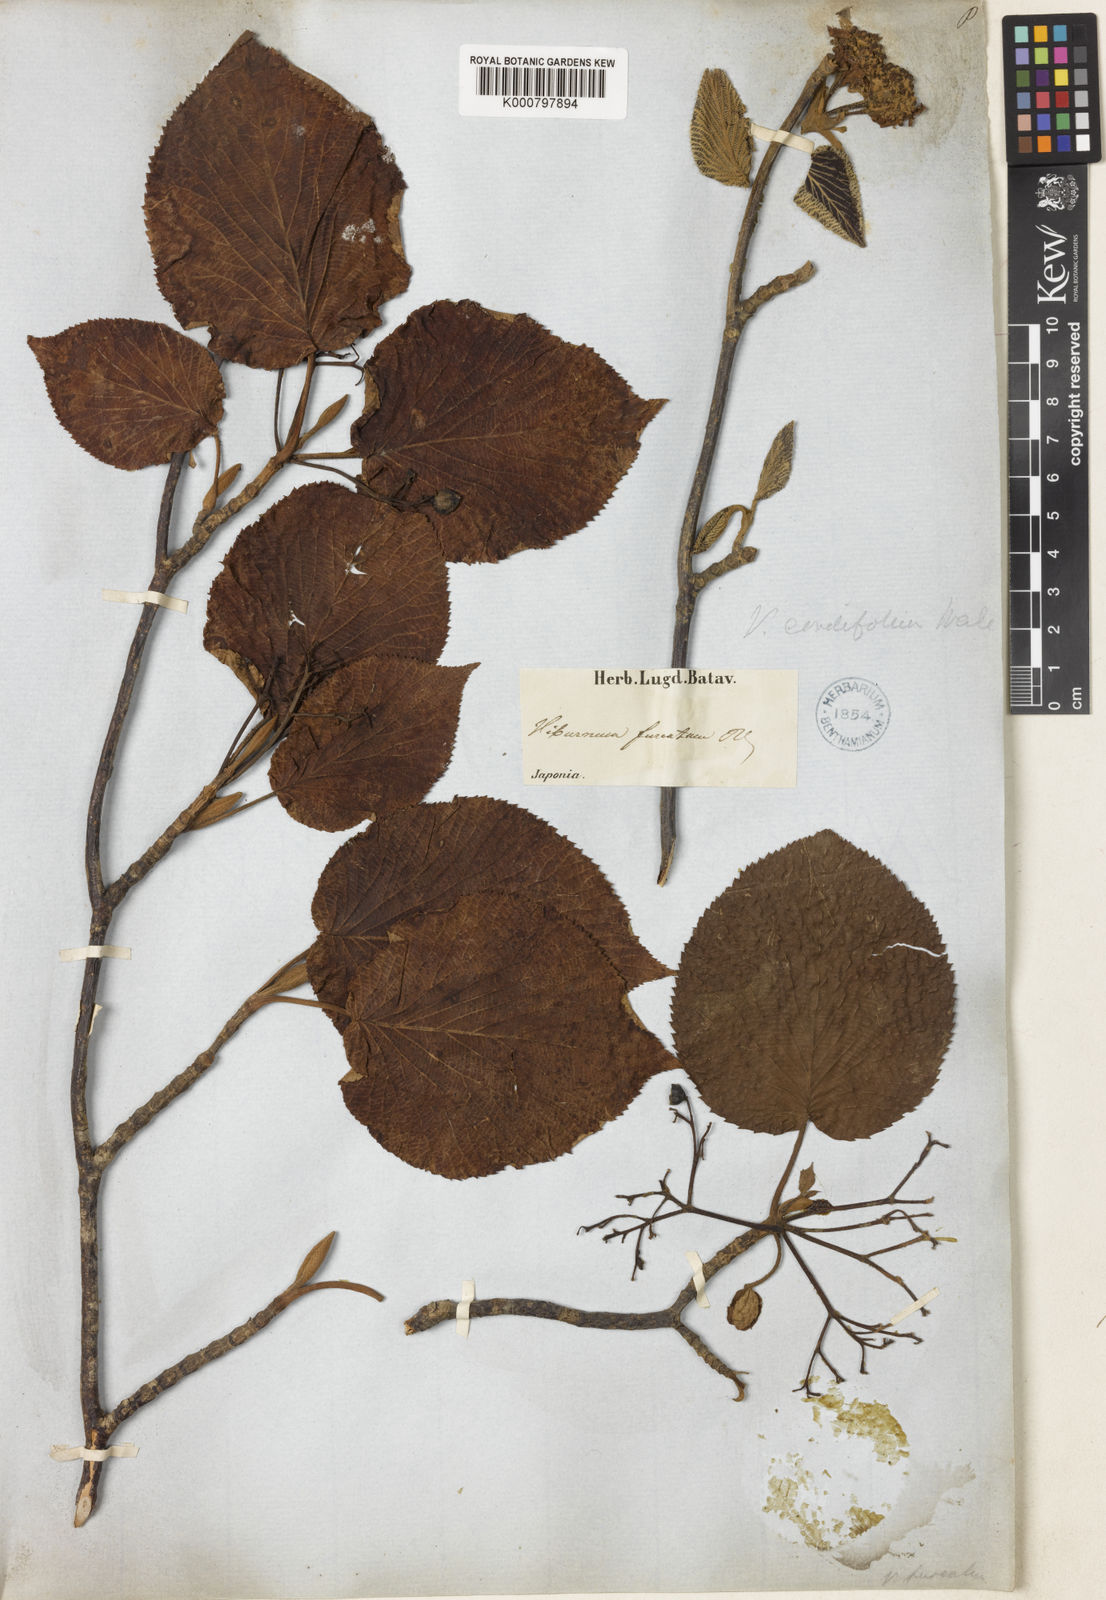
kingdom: Plantae
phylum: Tracheophyta
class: Magnoliopsida
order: Dipsacales
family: Viburnaceae
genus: Viburnum
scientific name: Viburnum furcatum
